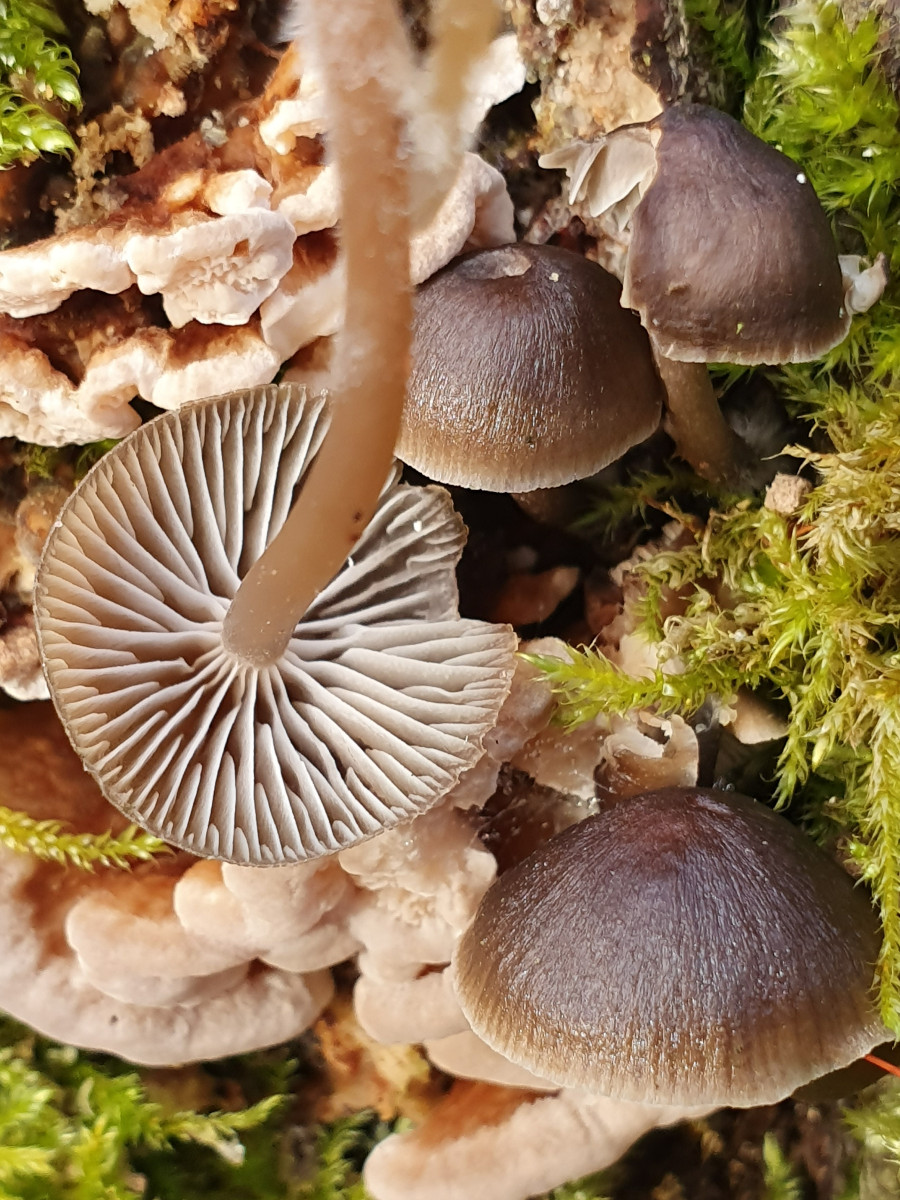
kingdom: Fungi
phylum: Basidiomycota
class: Agaricomycetes
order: Agaricales
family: Mycenaceae
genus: Mycena
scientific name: Mycena tintinnabulum
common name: vinter-huesvamp
